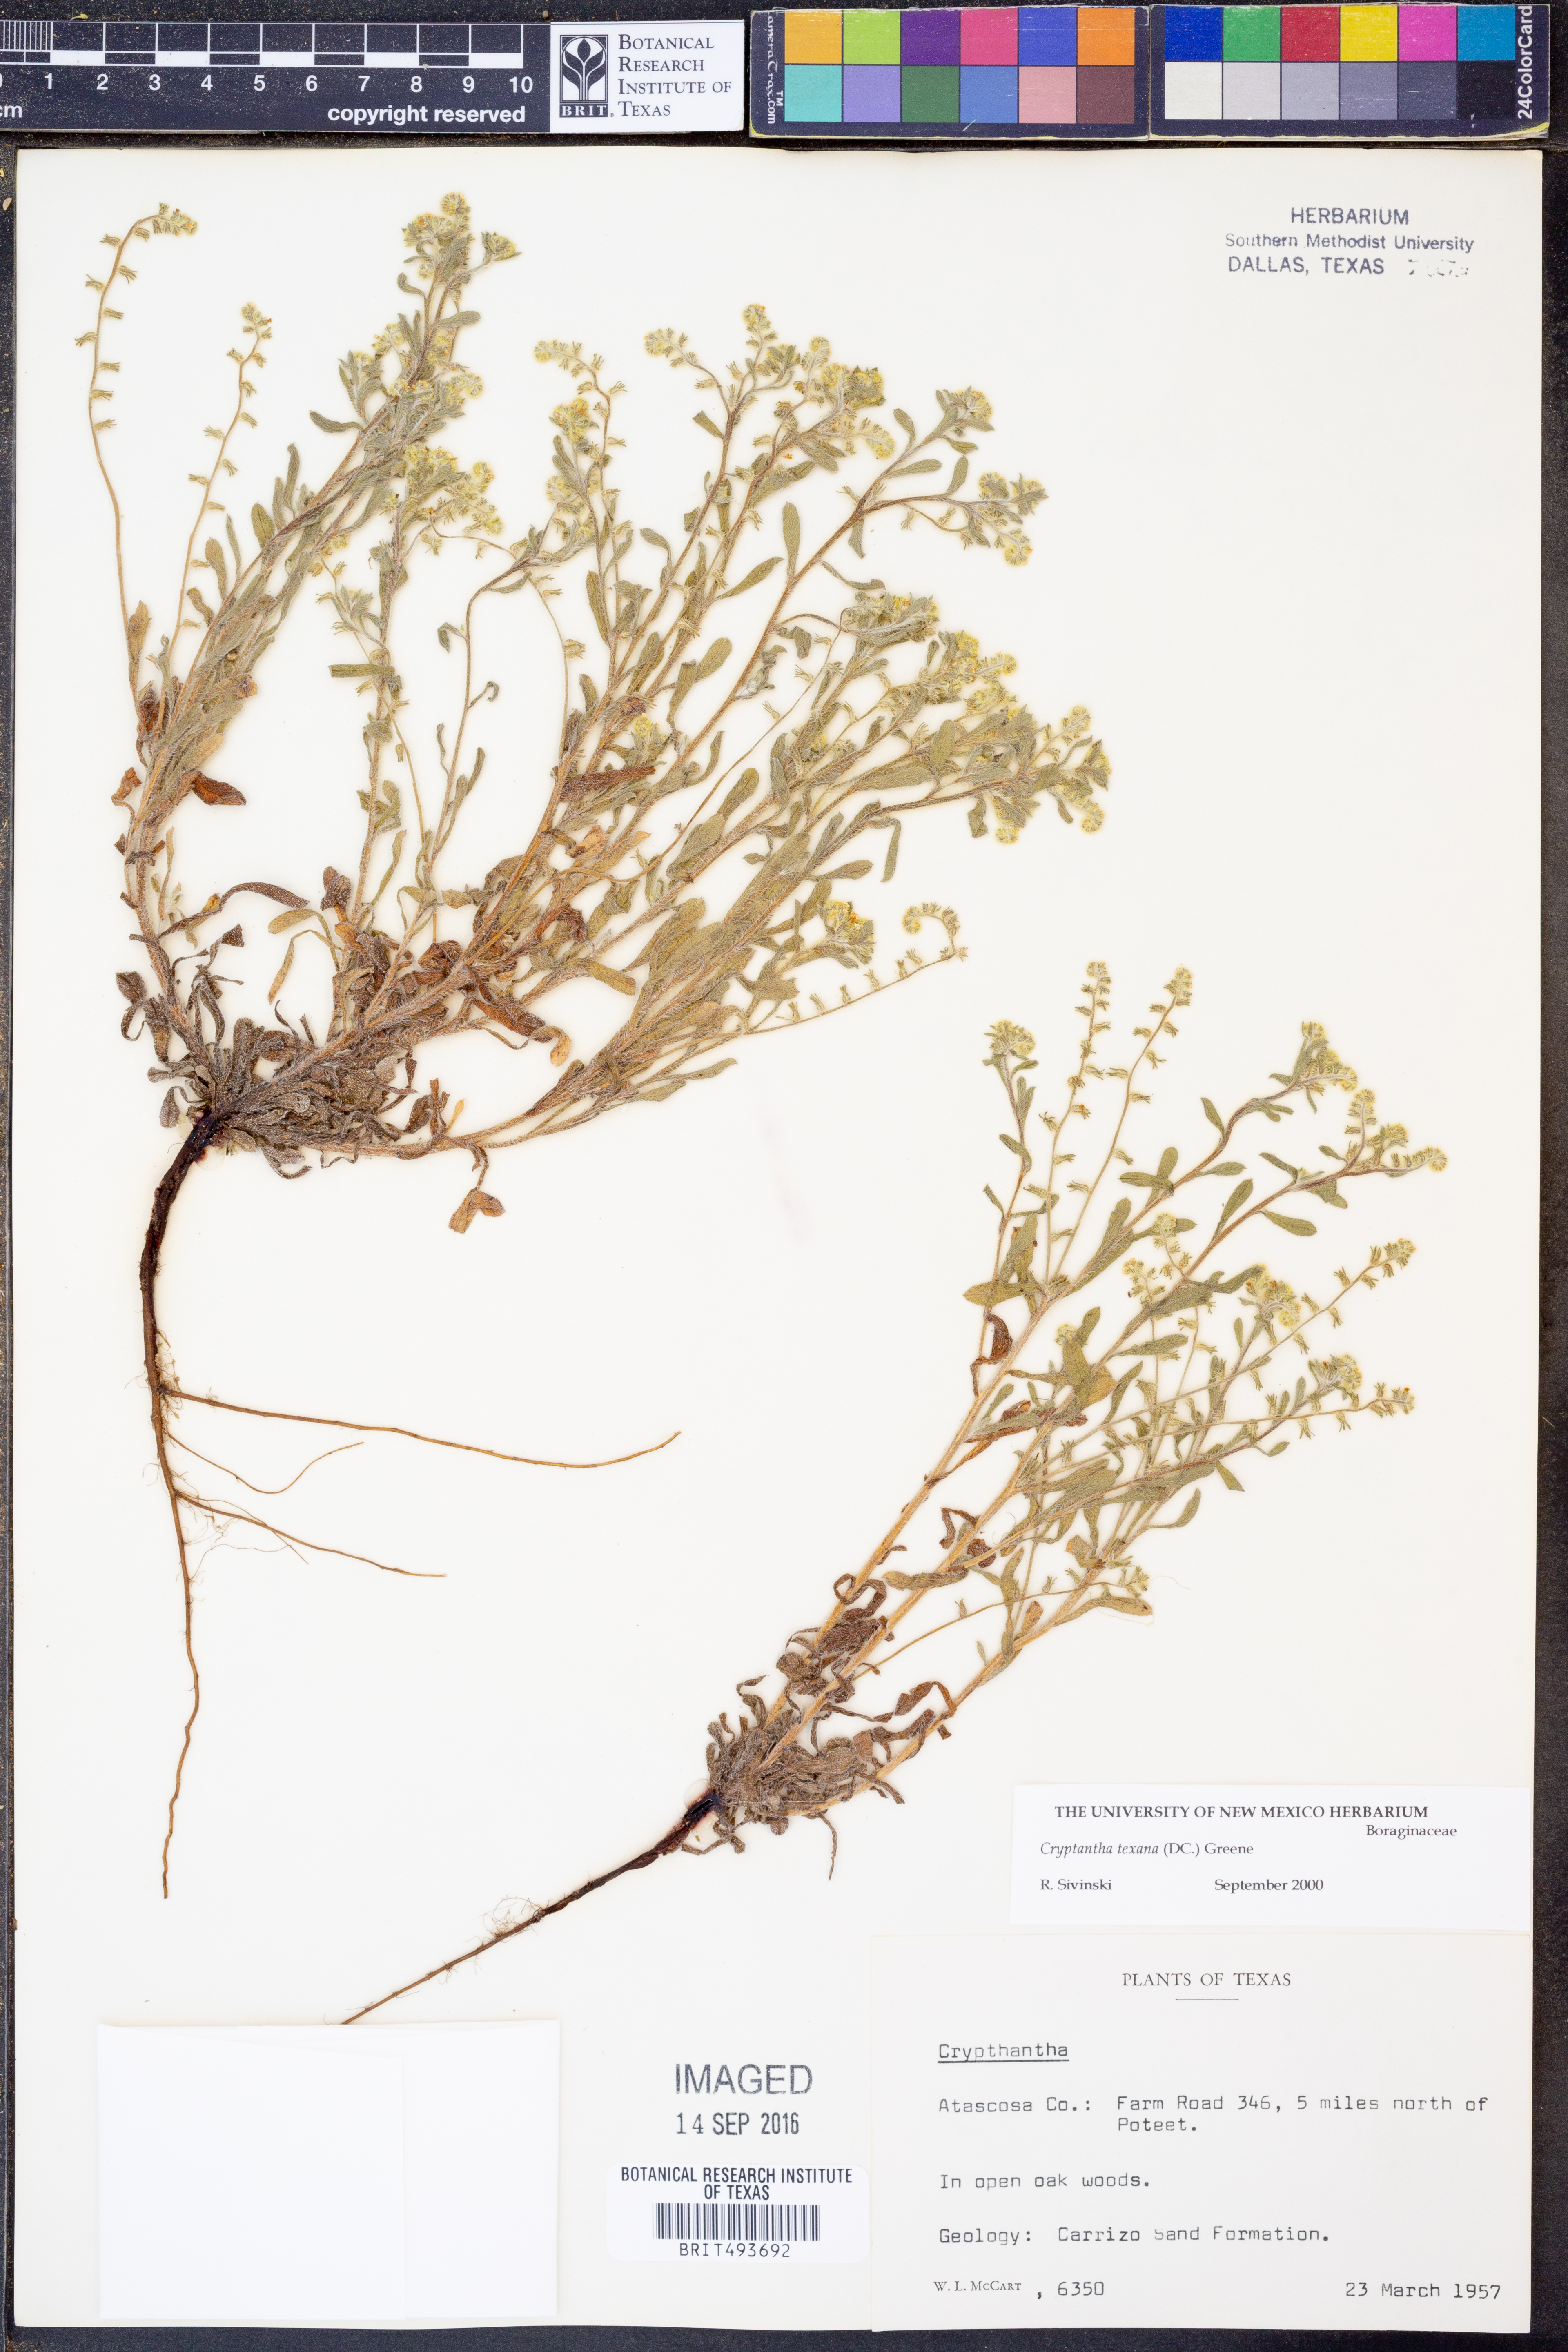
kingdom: Plantae
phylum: Tracheophyta
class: Magnoliopsida
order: Boraginales
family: Boraginaceae
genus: Cryptantha
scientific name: Cryptantha texana
